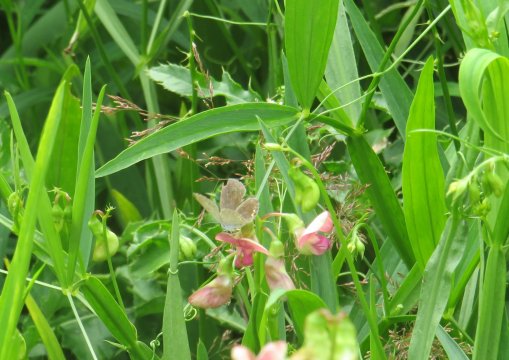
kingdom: Animalia
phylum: Arthropoda
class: Insecta
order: Lepidoptera
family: Lycaenidae
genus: Elkalyce
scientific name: Elkalyce comyntas
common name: Eastern Tailed-Blue
